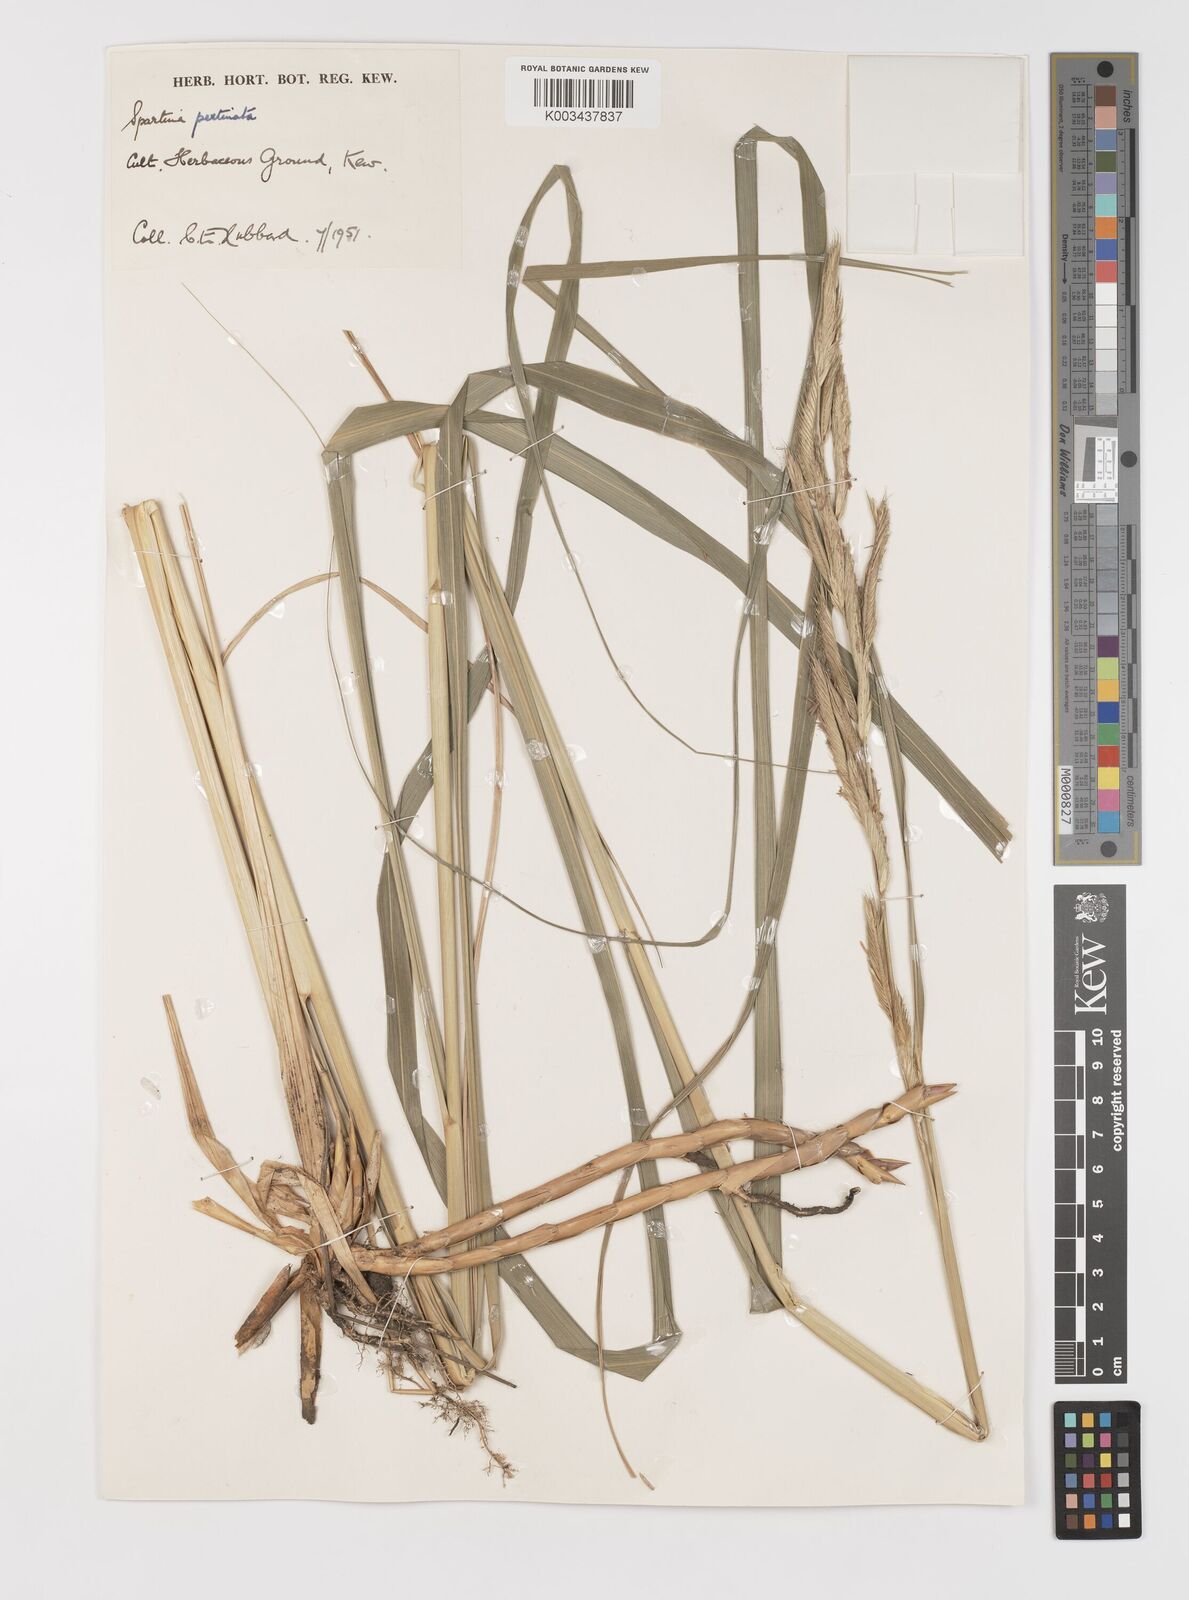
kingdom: Plantae
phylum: Tracheophyta
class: Liliopsida
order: Poales
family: Poaceae
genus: Sporobolus
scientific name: Sporobolus michauxianus
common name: Freshwater cordgrass
